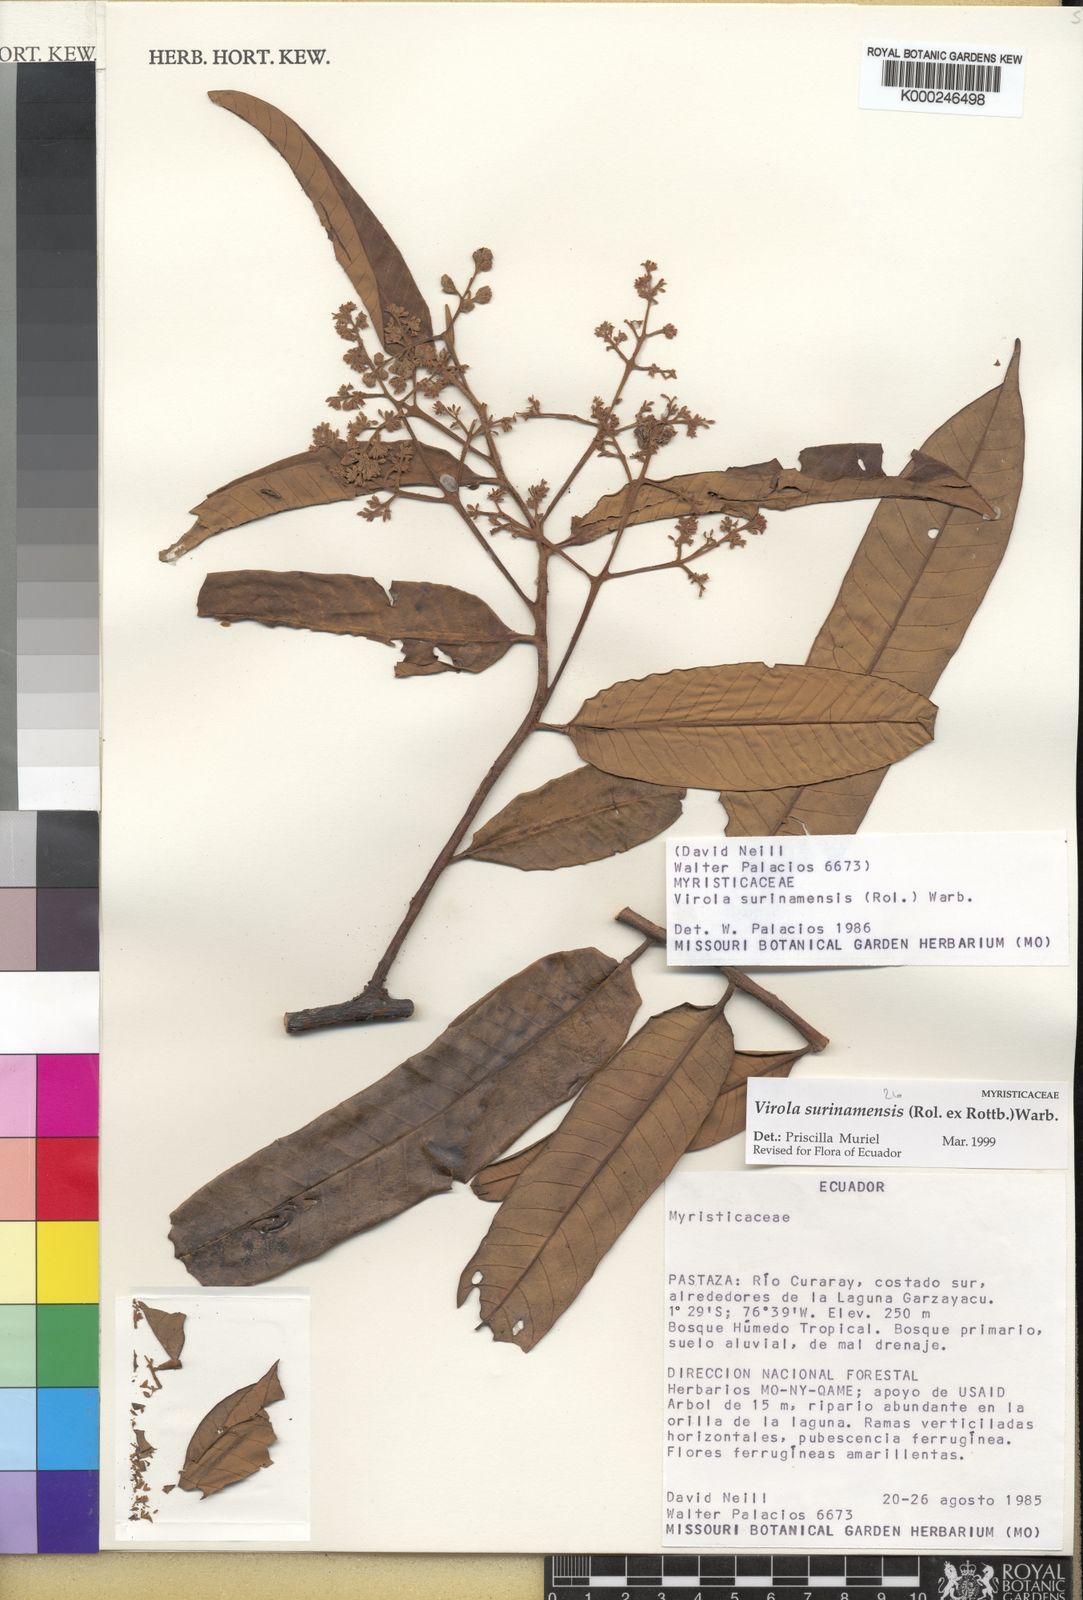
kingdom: Plantae
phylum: Tracheophyta
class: Magnoliopsida
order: Magnoliales
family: Myristicaceae
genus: Virola
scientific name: Virola surinamensis
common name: Baboonwood
